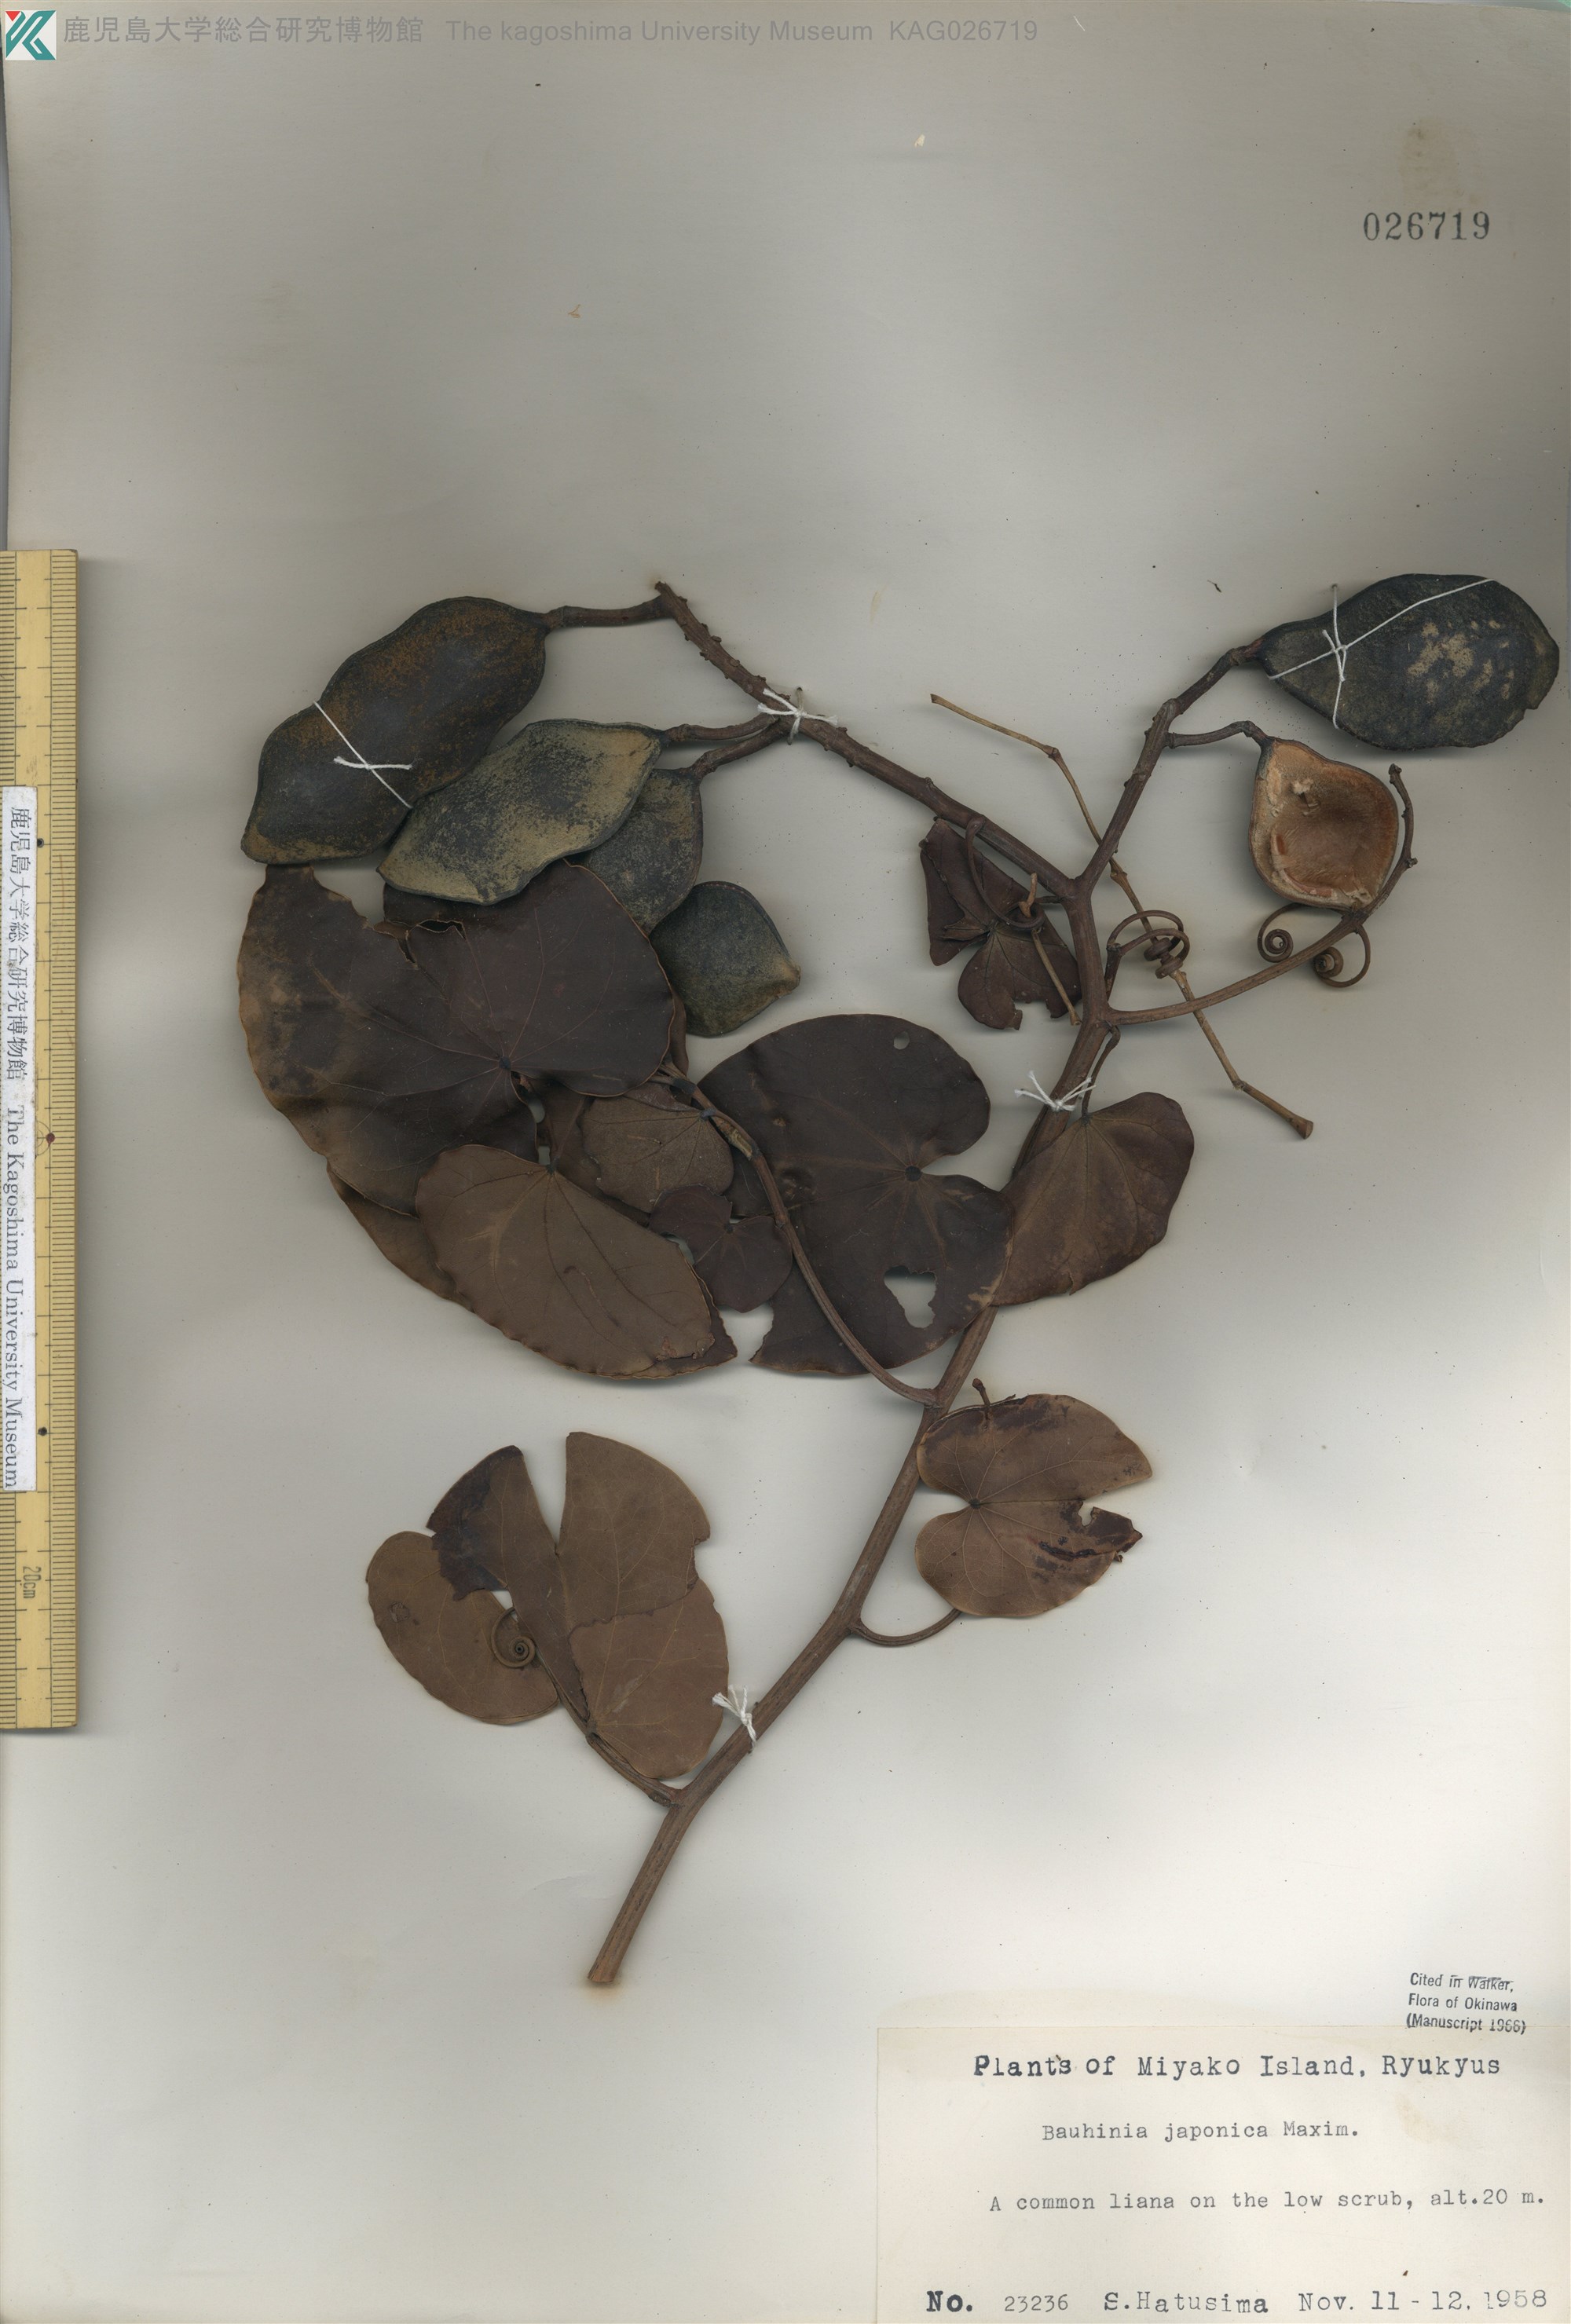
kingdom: Plantae
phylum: Tracheophyta
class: Magnoliopsida
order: Fabales
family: Fabaceae
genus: Phanera
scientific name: Phanera japonica
